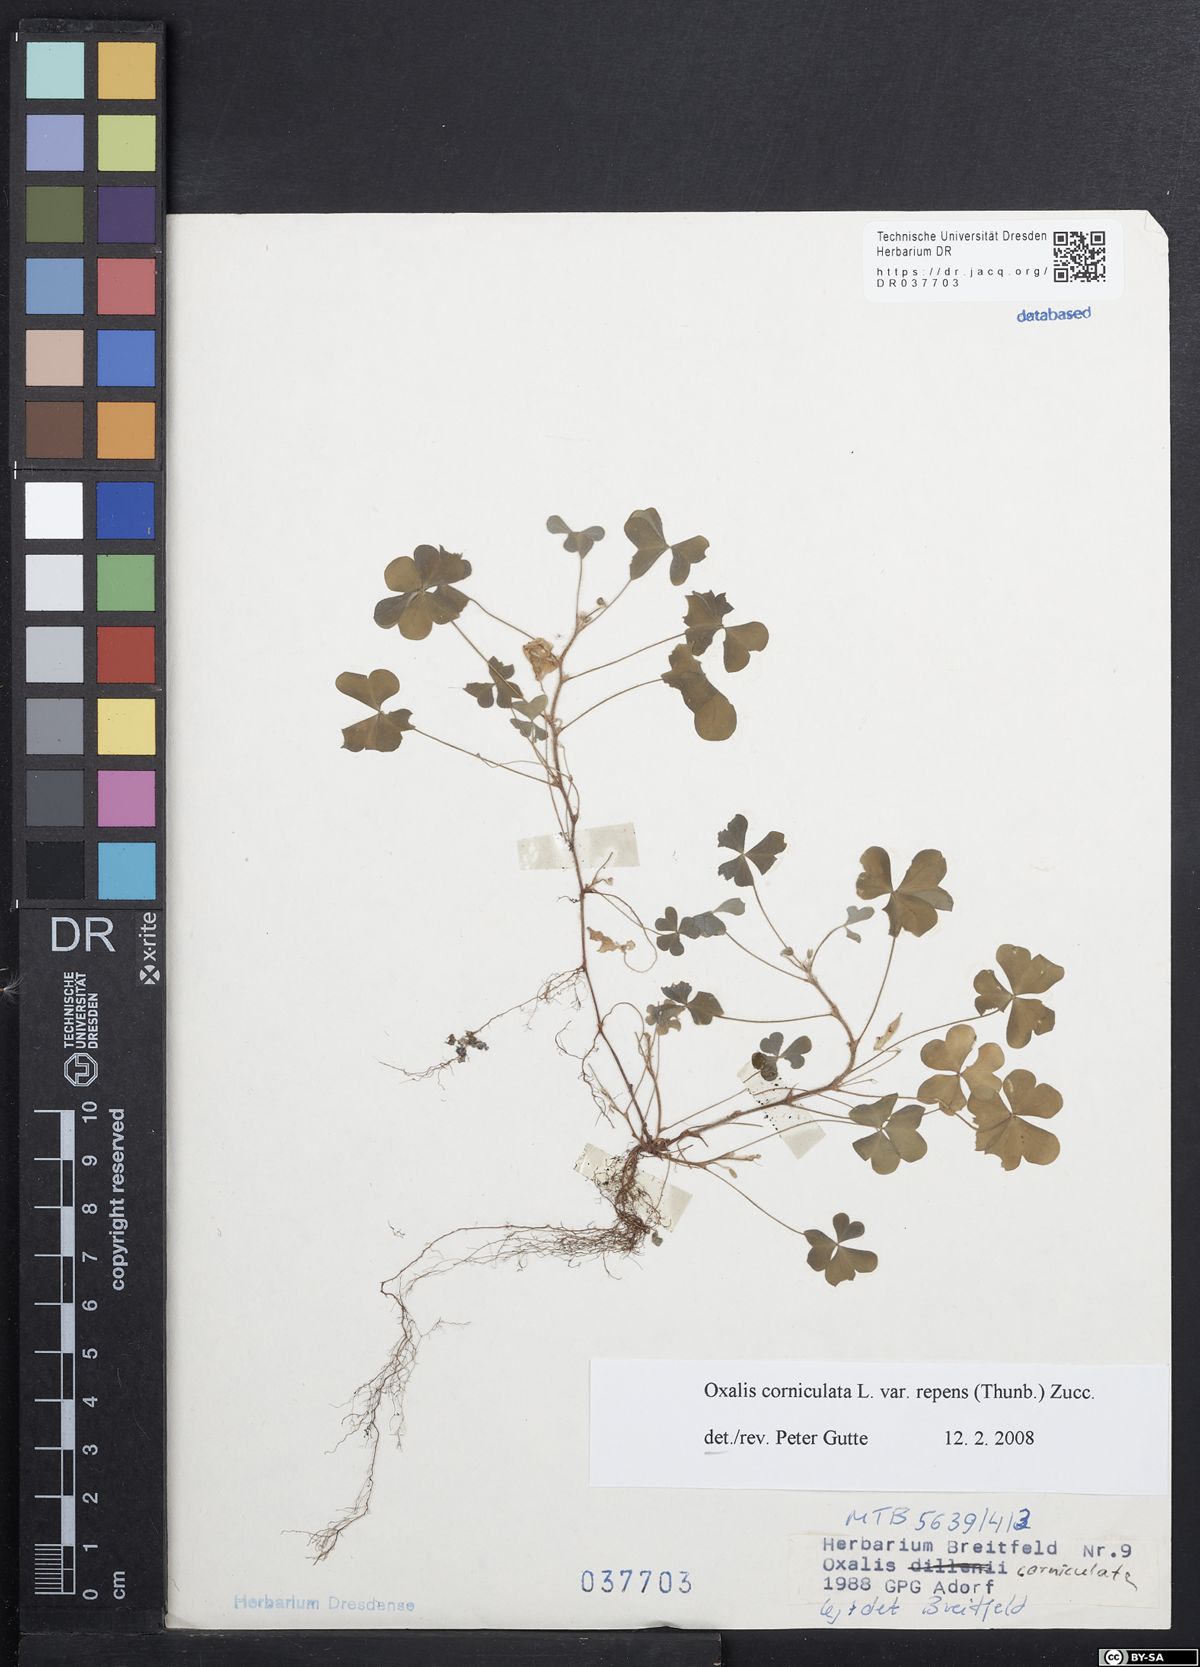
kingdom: Plantae
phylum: Tracheophyta
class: Magnoliopsida
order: Oxalidales
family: Oxalidaceae
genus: Oxalis
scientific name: Oxalis corniculata
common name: Procumbent yellow-sorrel
